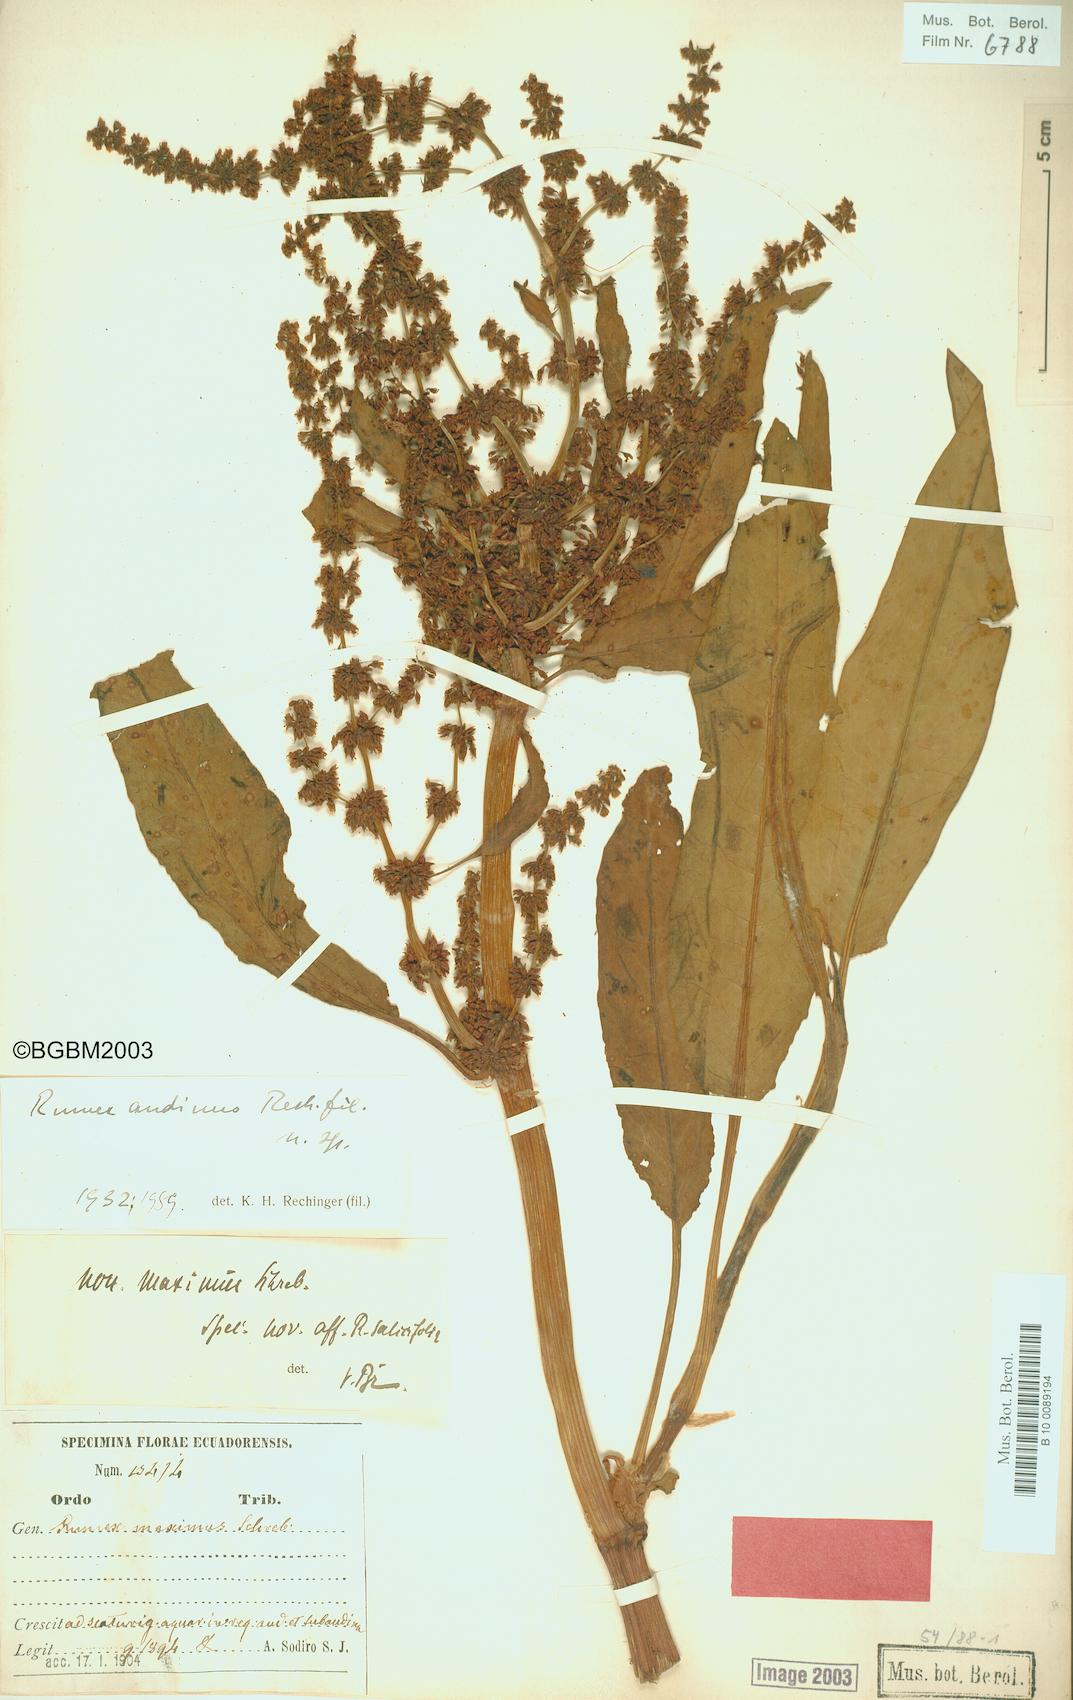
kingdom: Plantae
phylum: Tracheophyta
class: Magnoliopsida
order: Caryophyllales
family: Polygonaceae
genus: Rumex
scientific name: Rumex andinus
